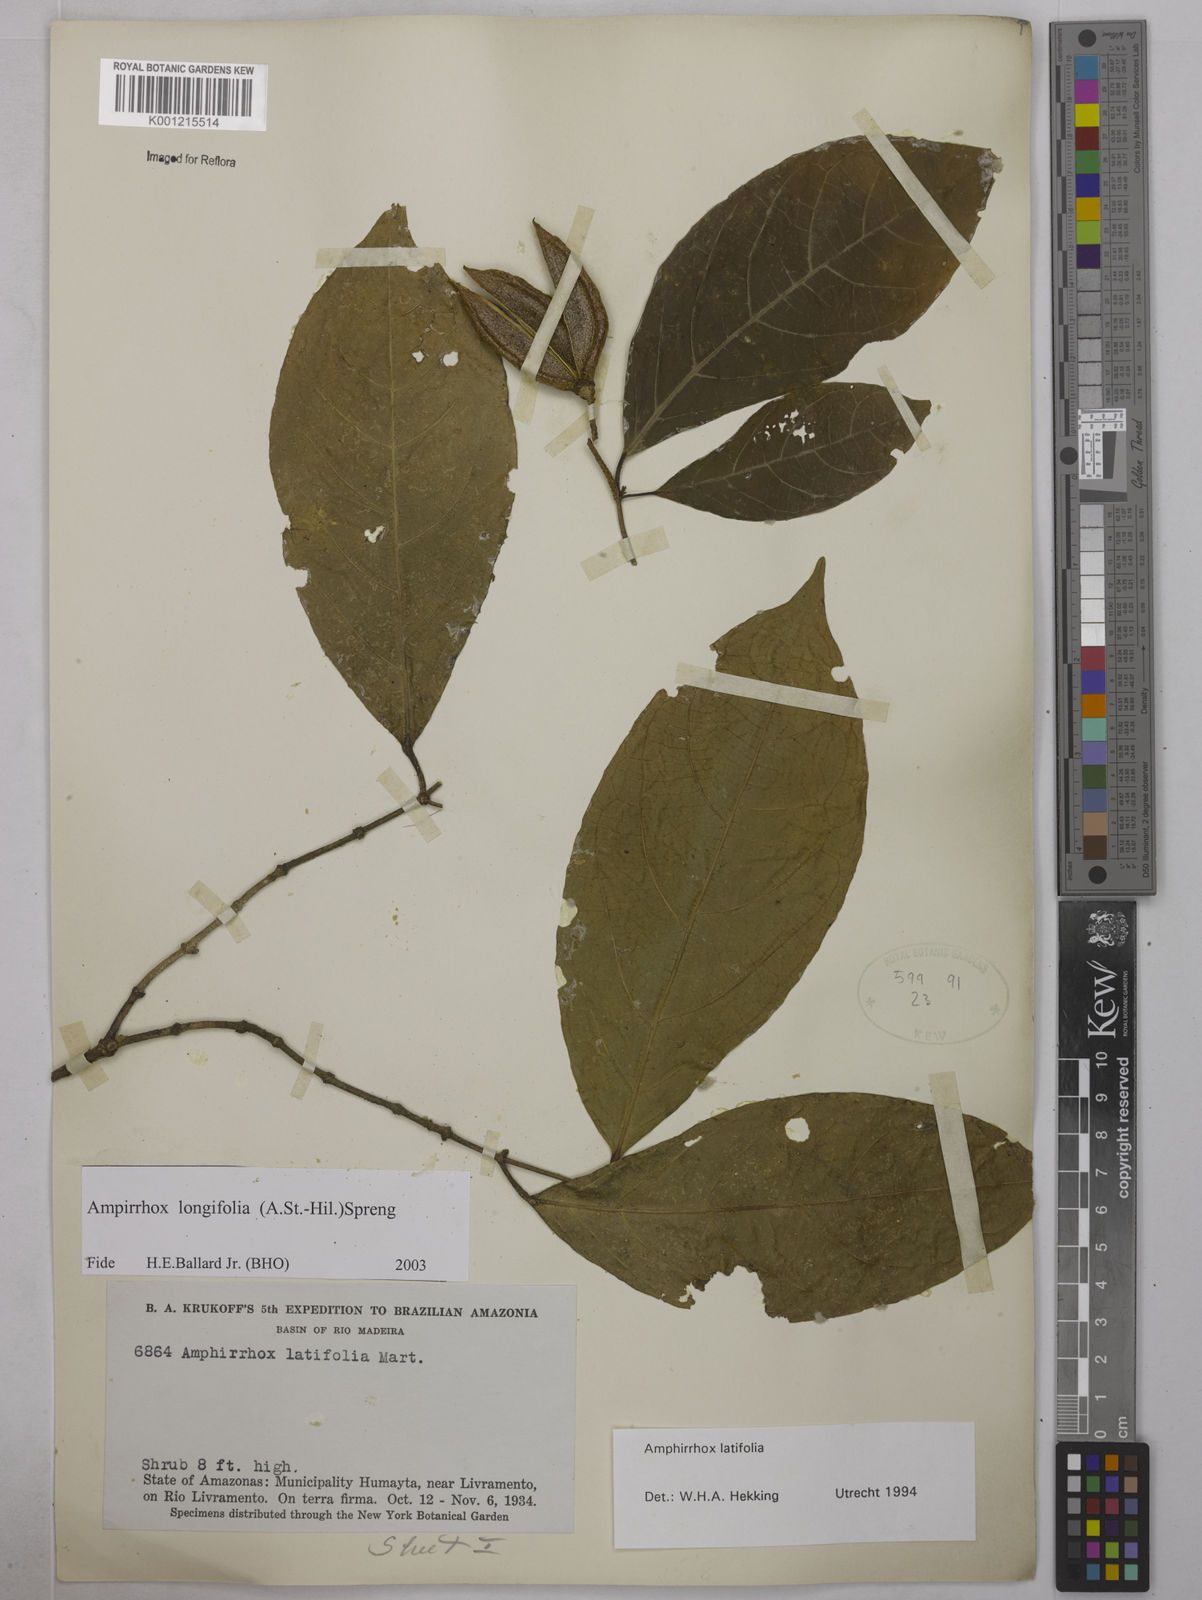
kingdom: Plantae
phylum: Tracheophyta
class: Magnoliopsida
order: Malpighiales
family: Violaceae
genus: Amphirrhox
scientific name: Amphirrhox longifolia
